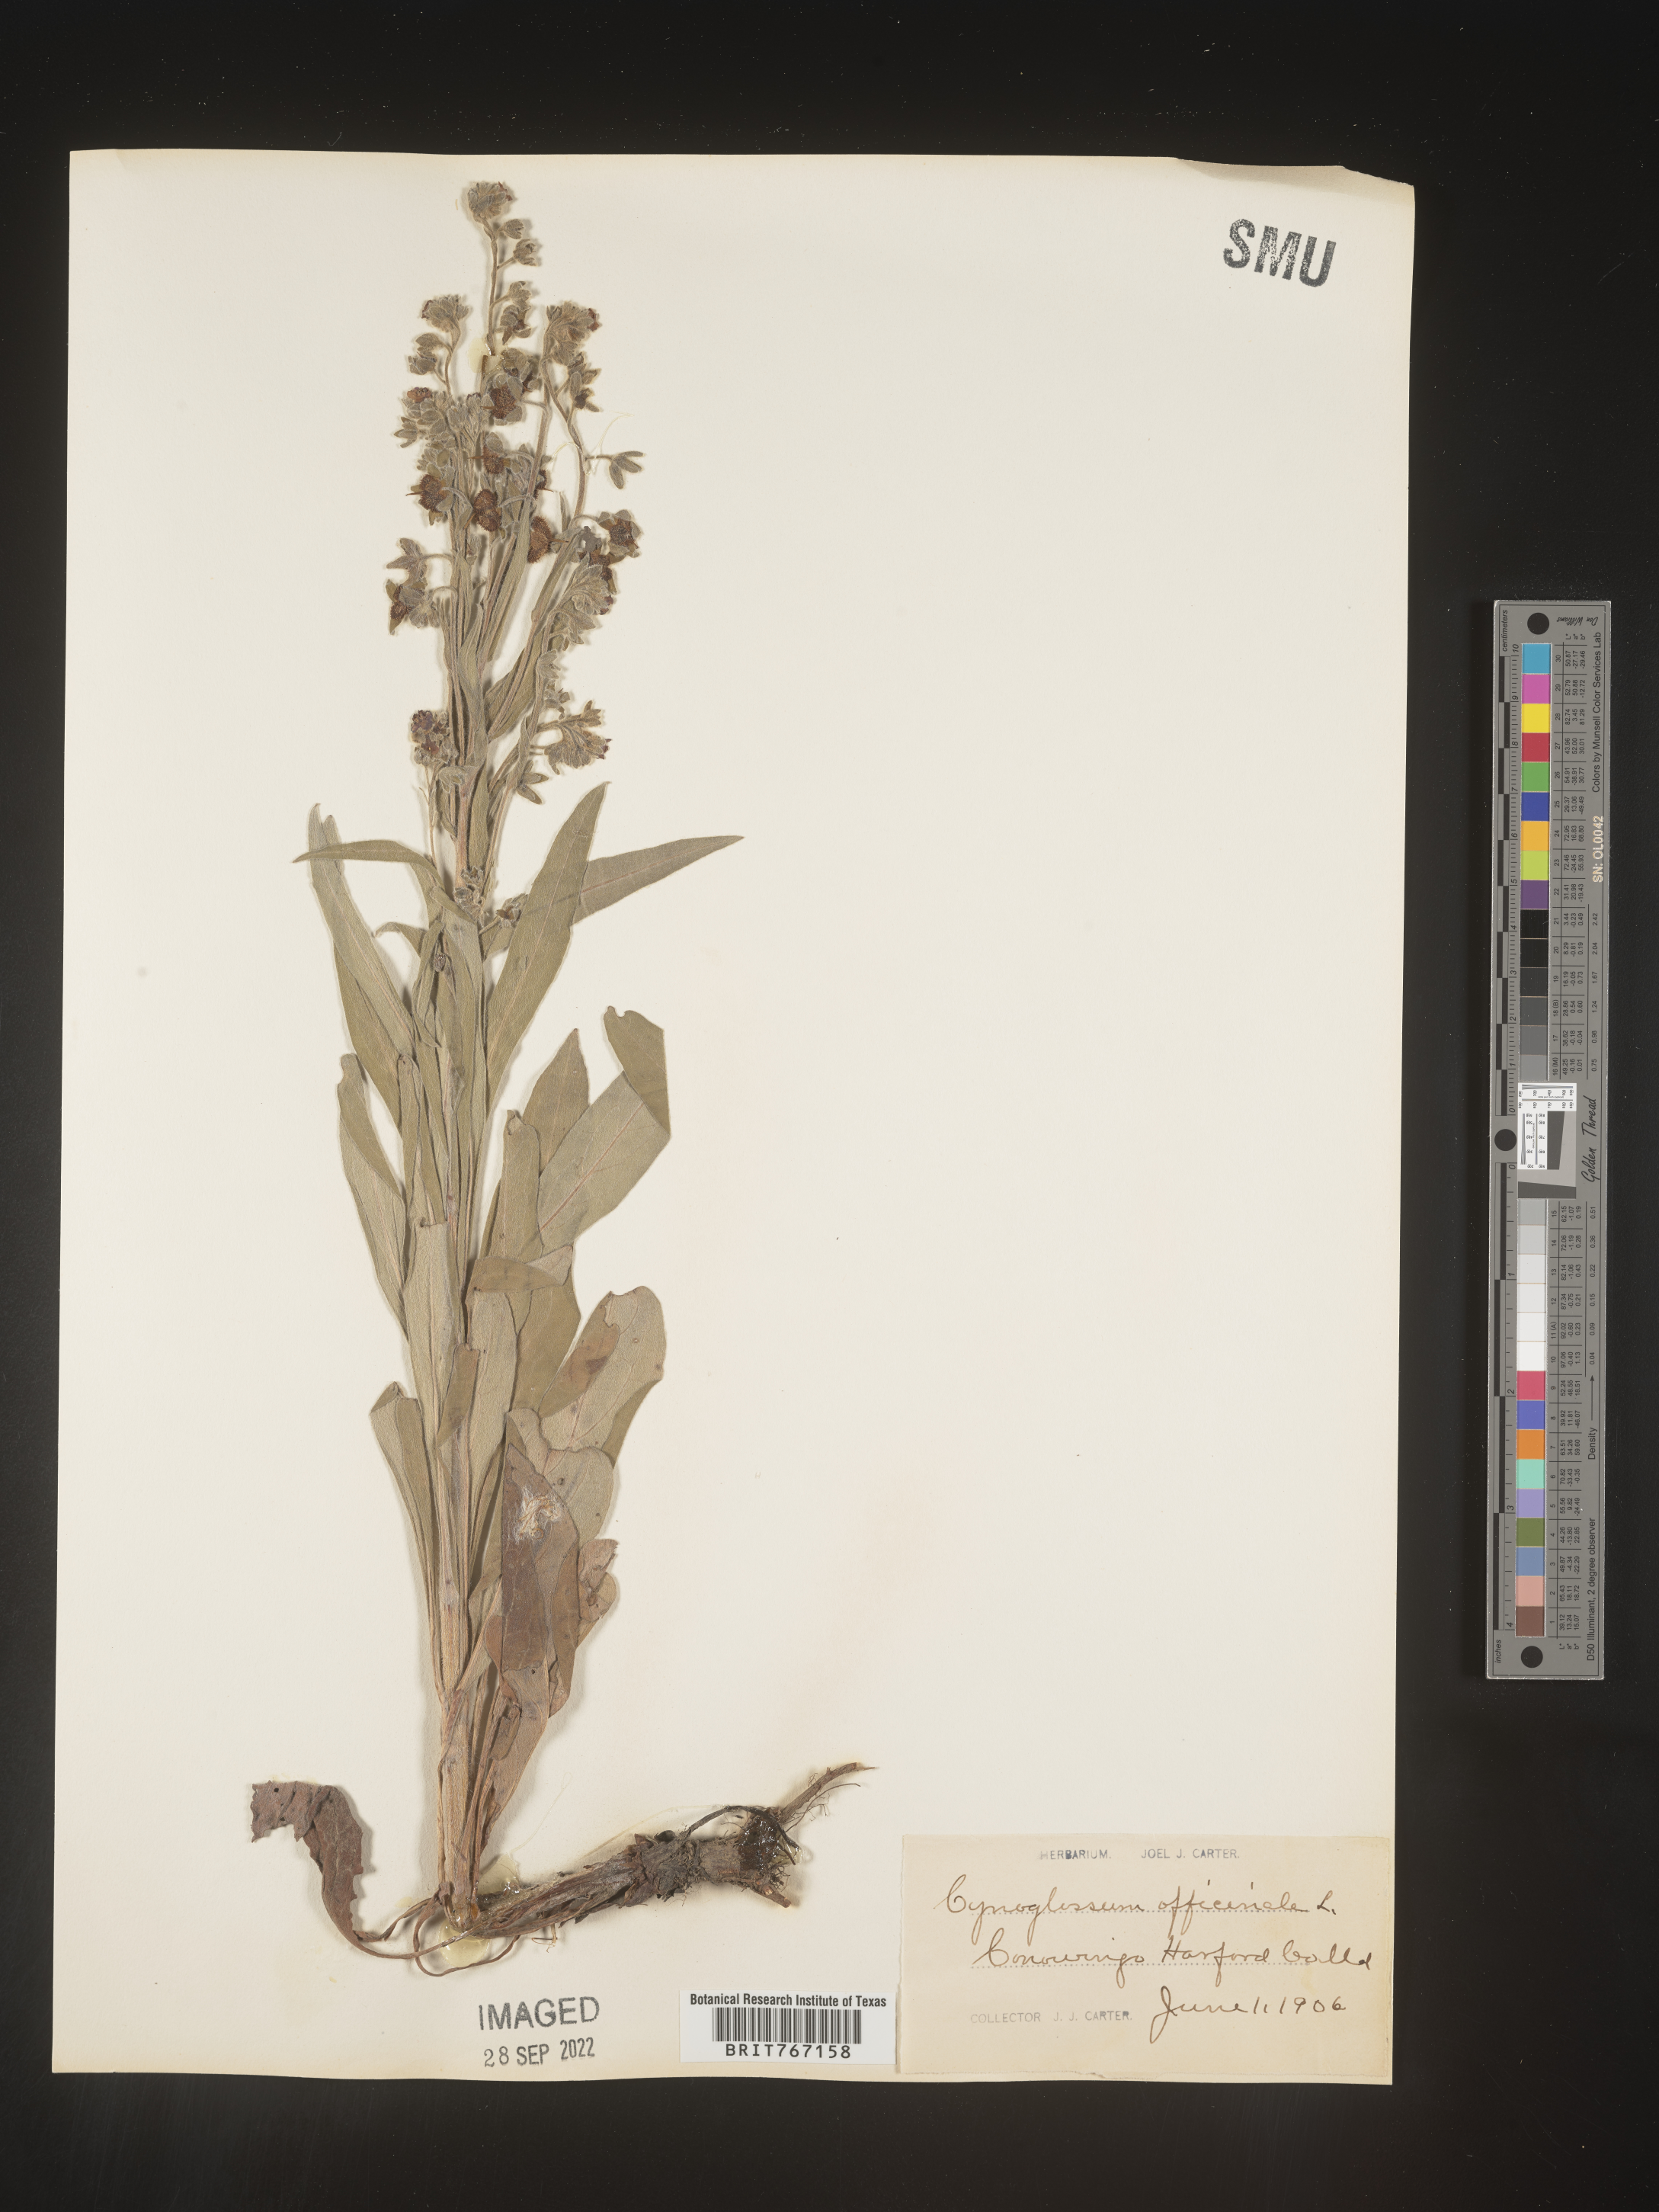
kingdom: Plantae
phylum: Tracheophyta
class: Magnoliopsida
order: Boraginales
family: Boraginaceae
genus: Cynoglossum
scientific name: Cynoglossum officinale
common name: Hound's-tongue
